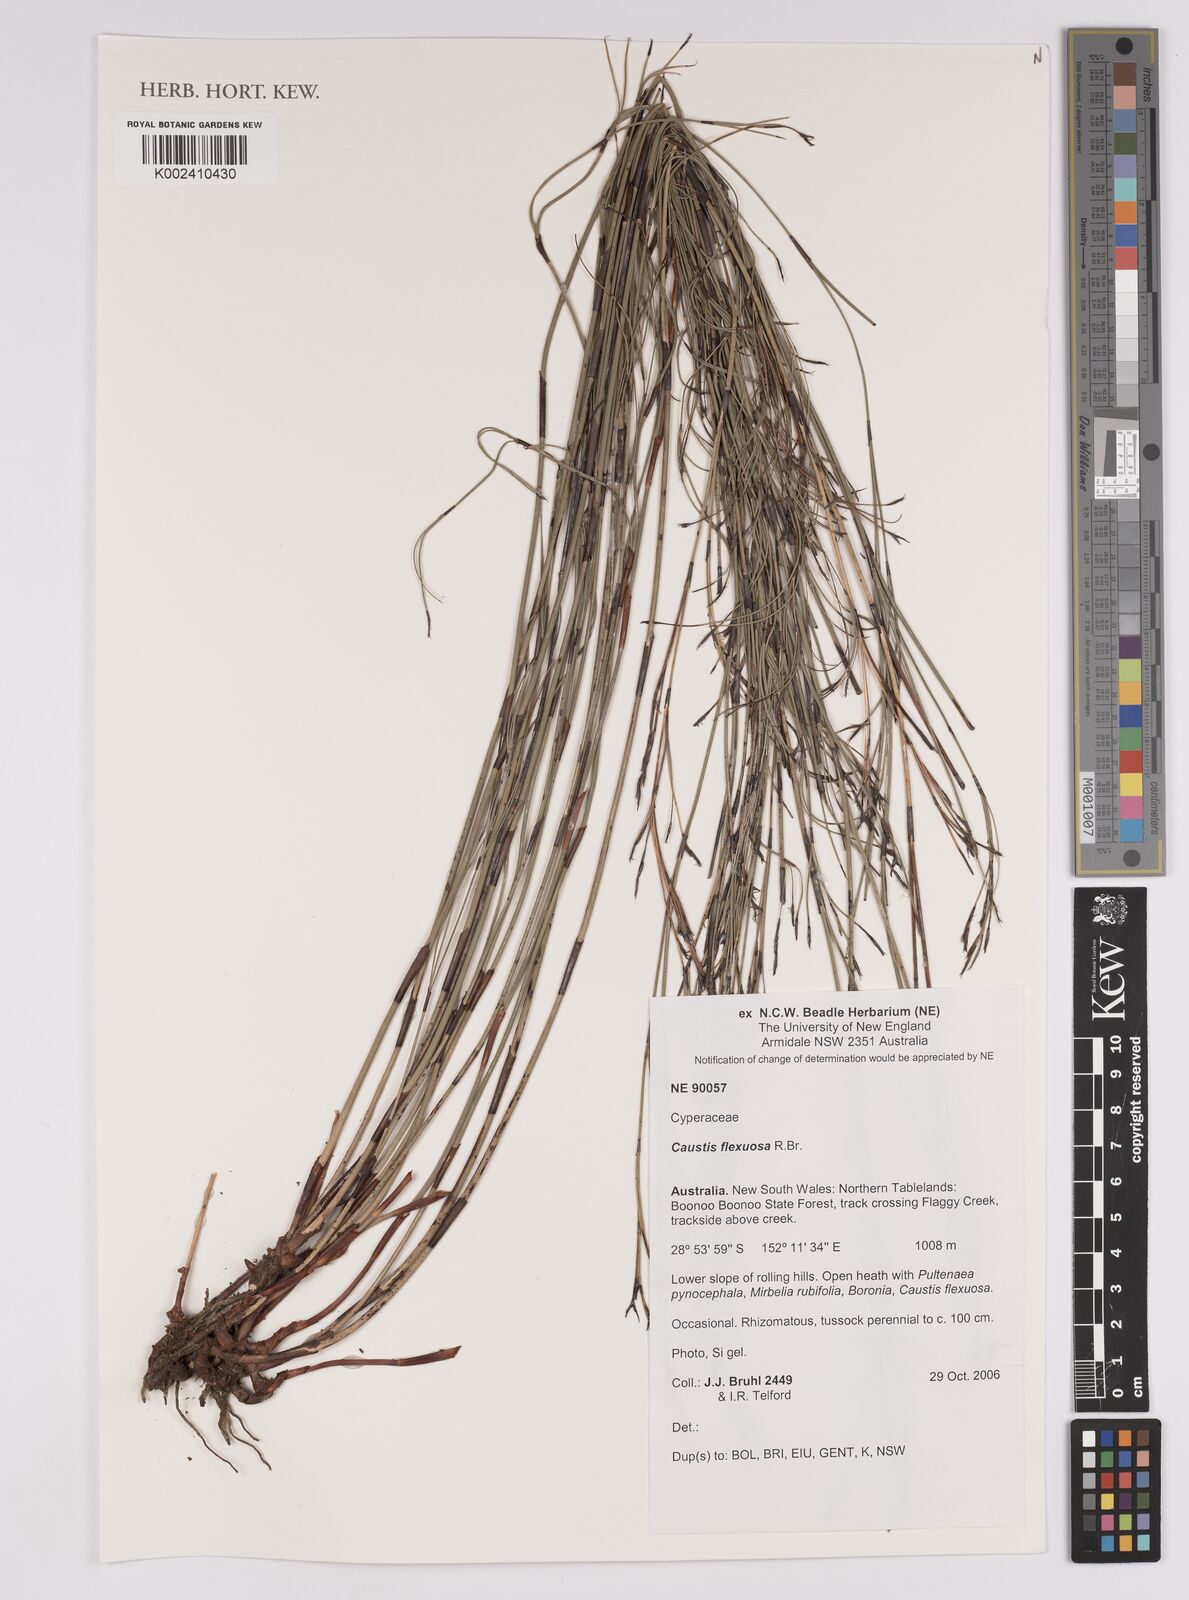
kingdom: Plantae
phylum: Tracheophyta
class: Liliopsida
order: Poales
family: Cyperaceae
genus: Caustis
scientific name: Caustis flexuosa
